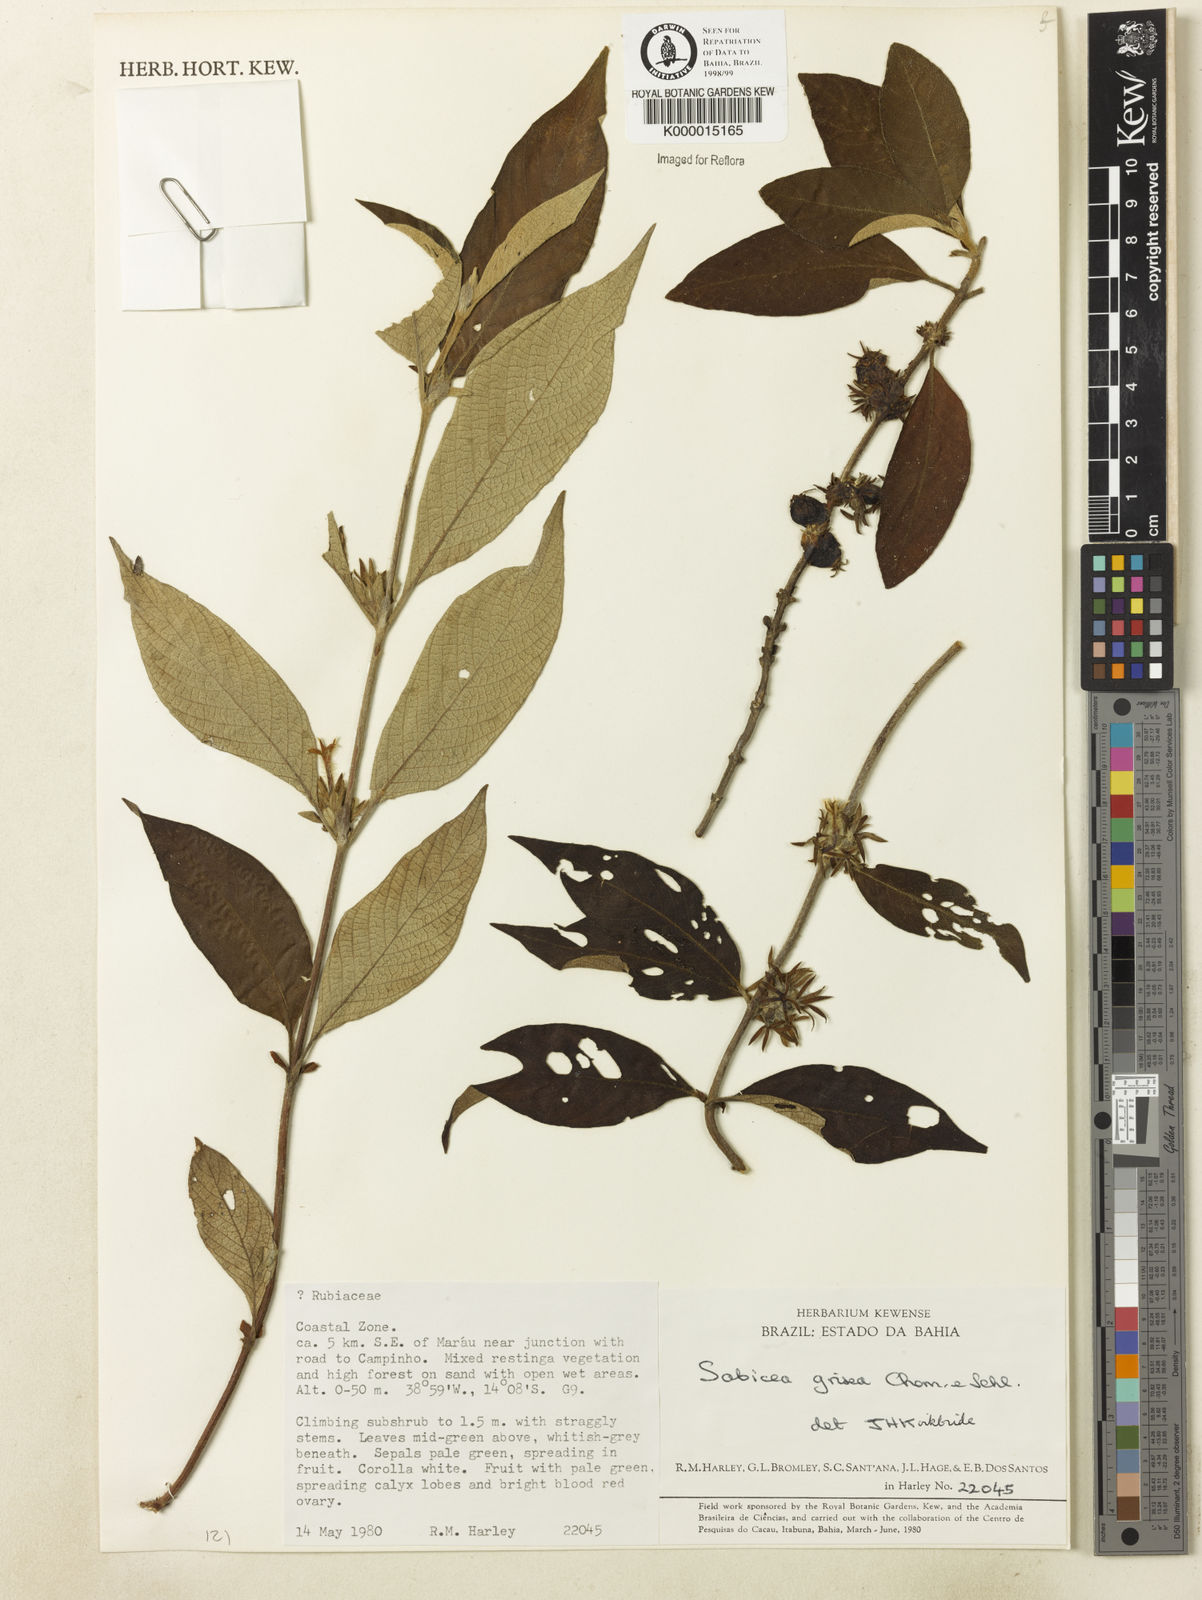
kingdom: Plantae
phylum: Tracheophyta
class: Magnoliopsida
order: Gentianales
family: Rubiaceae
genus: Sabicea
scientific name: Sabicea grisea
